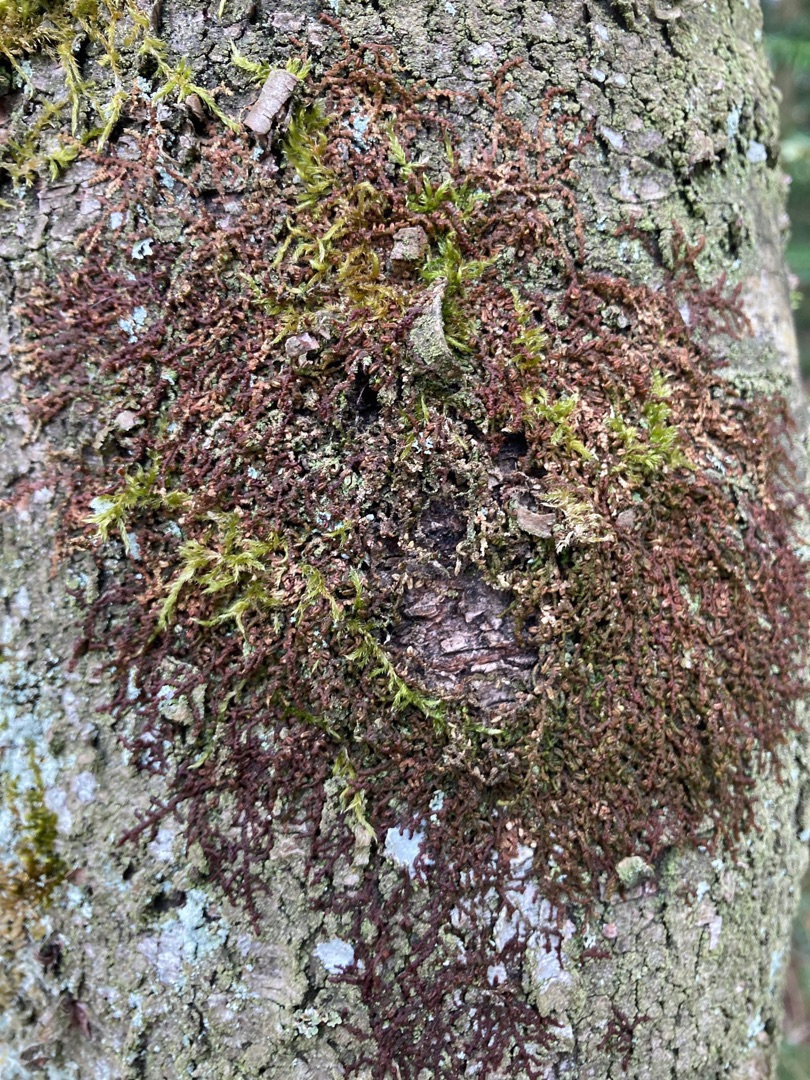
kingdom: Plantae
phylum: Marchantiophyta
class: Jungermanniopsida
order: Porellales
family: Frullaniaceae
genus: Frullania
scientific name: Frullania dilatata
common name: Mat bronzemos
